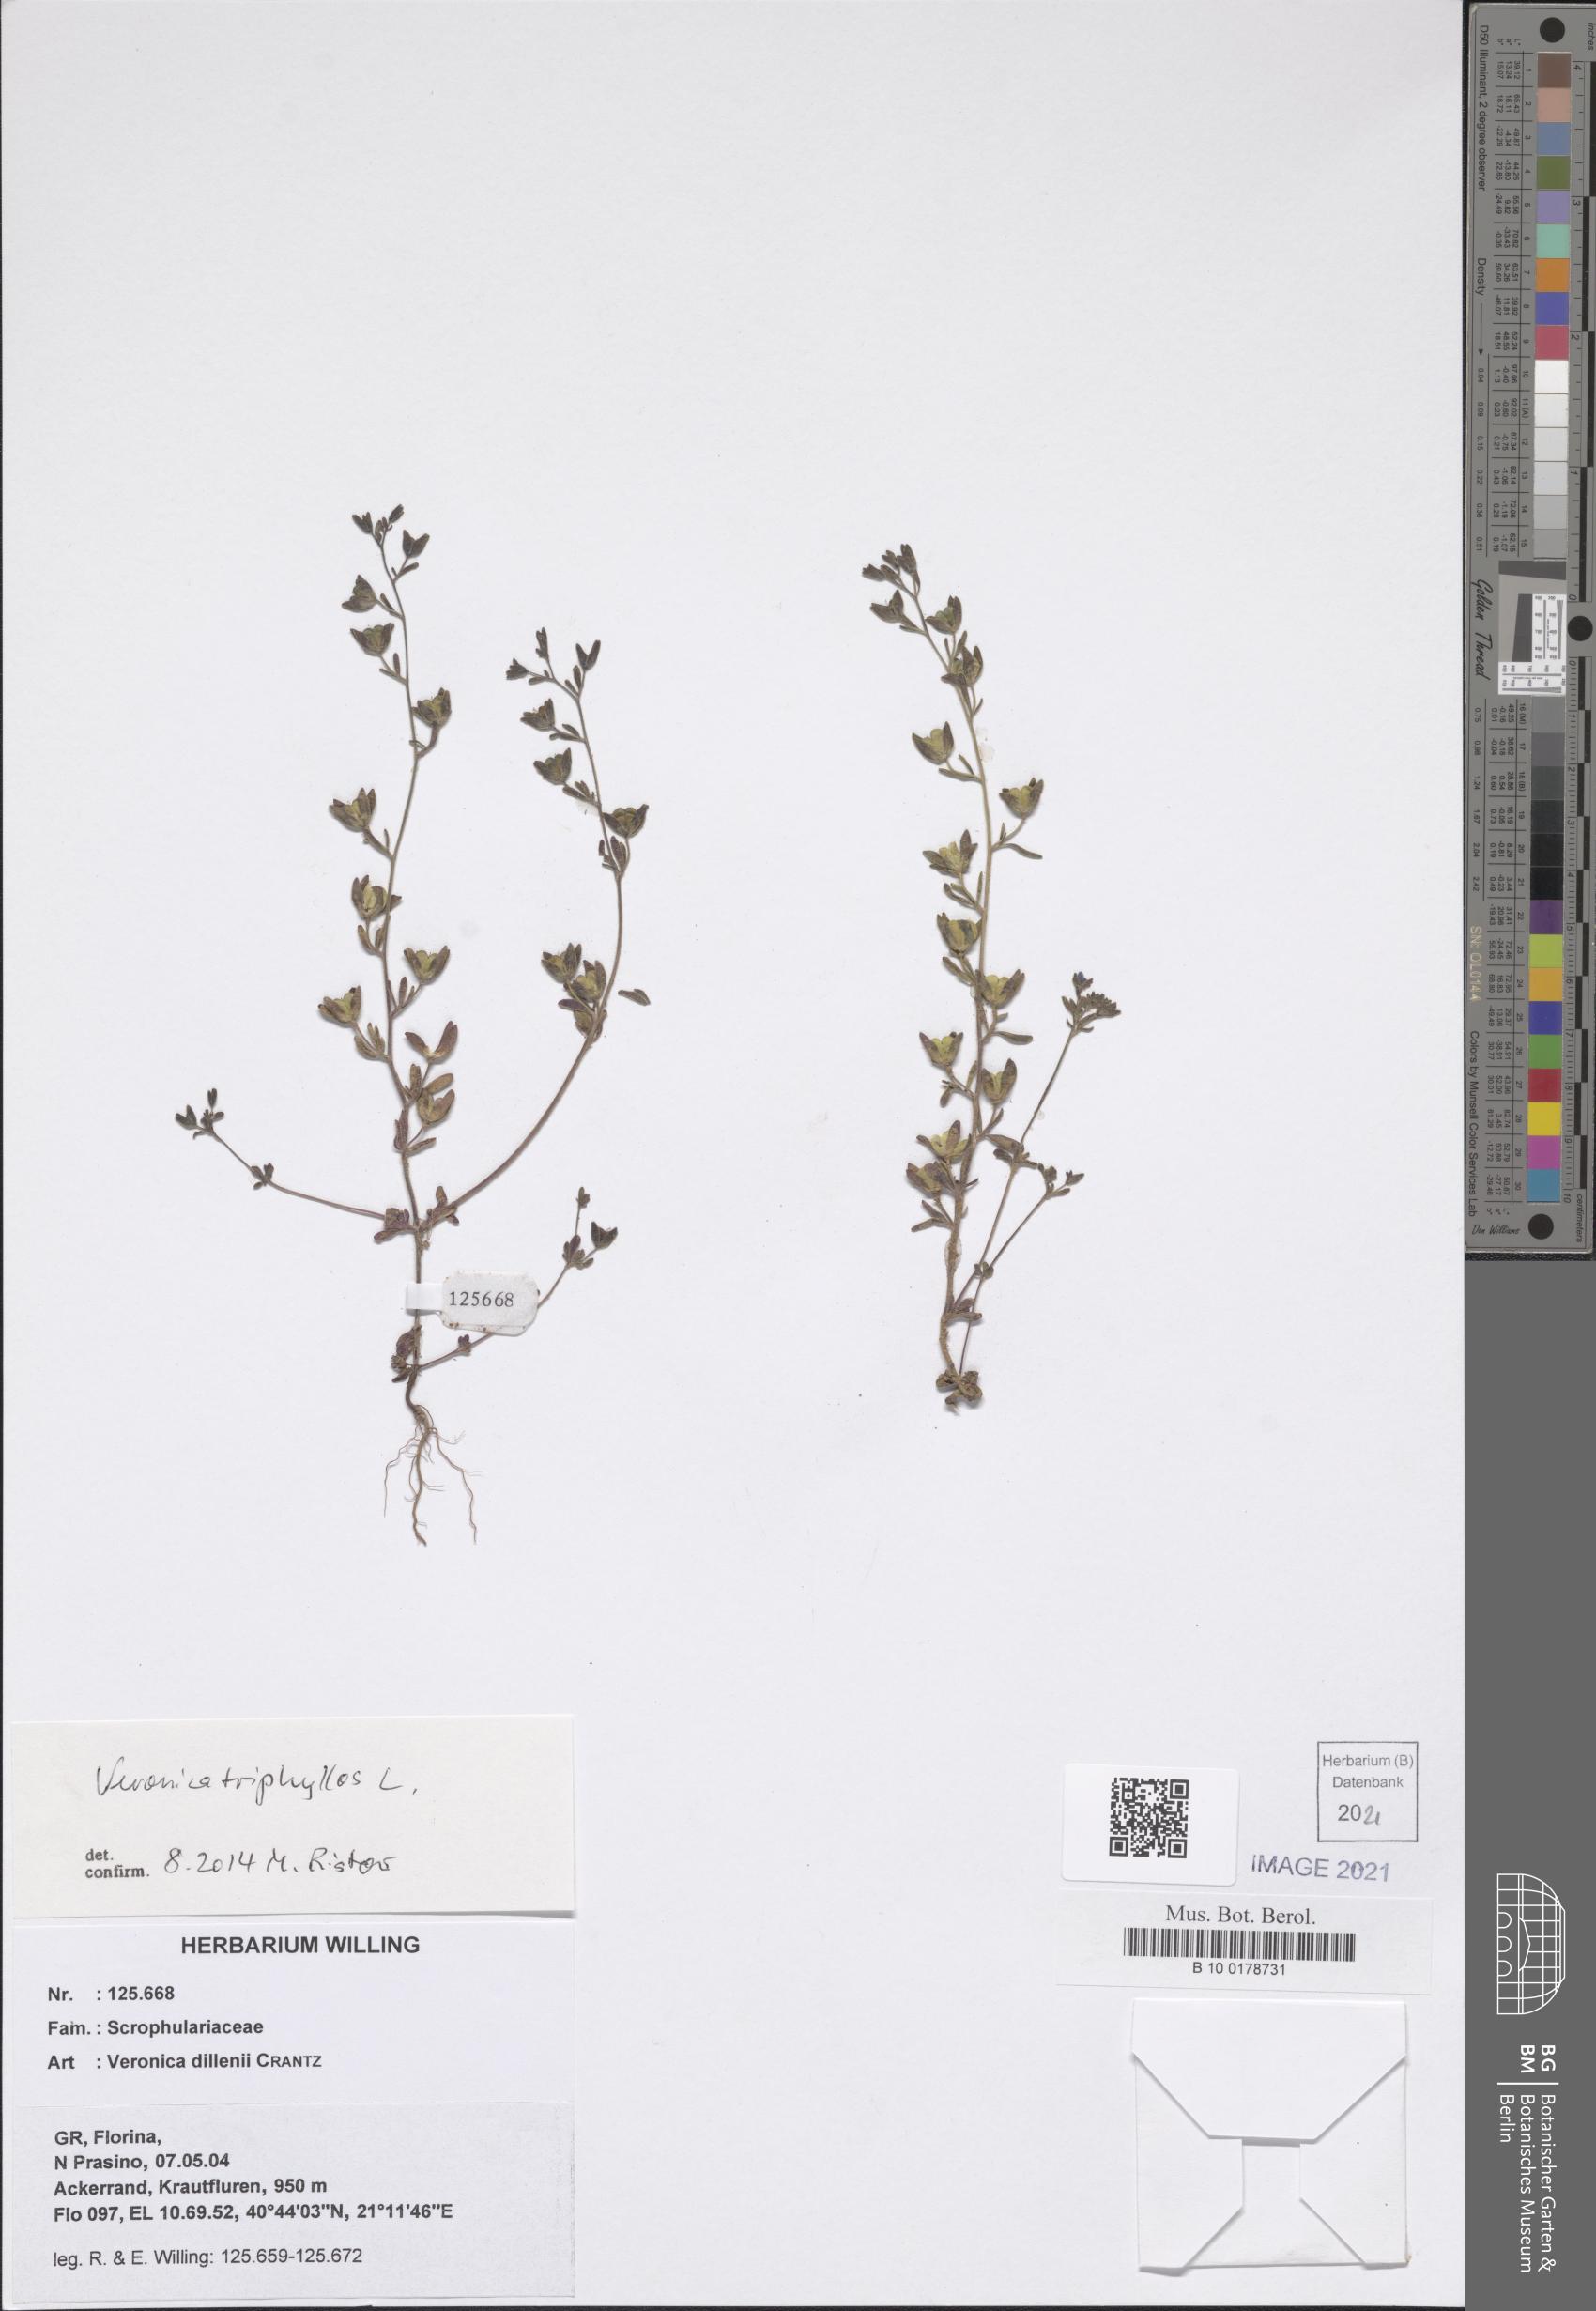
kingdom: Plantae
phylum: Tracheophyta
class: Magnoliopsida
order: Lamiales
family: Plantaginaceae
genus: Veronica
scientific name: Veronica triphyllos
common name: Fingered speedwell
